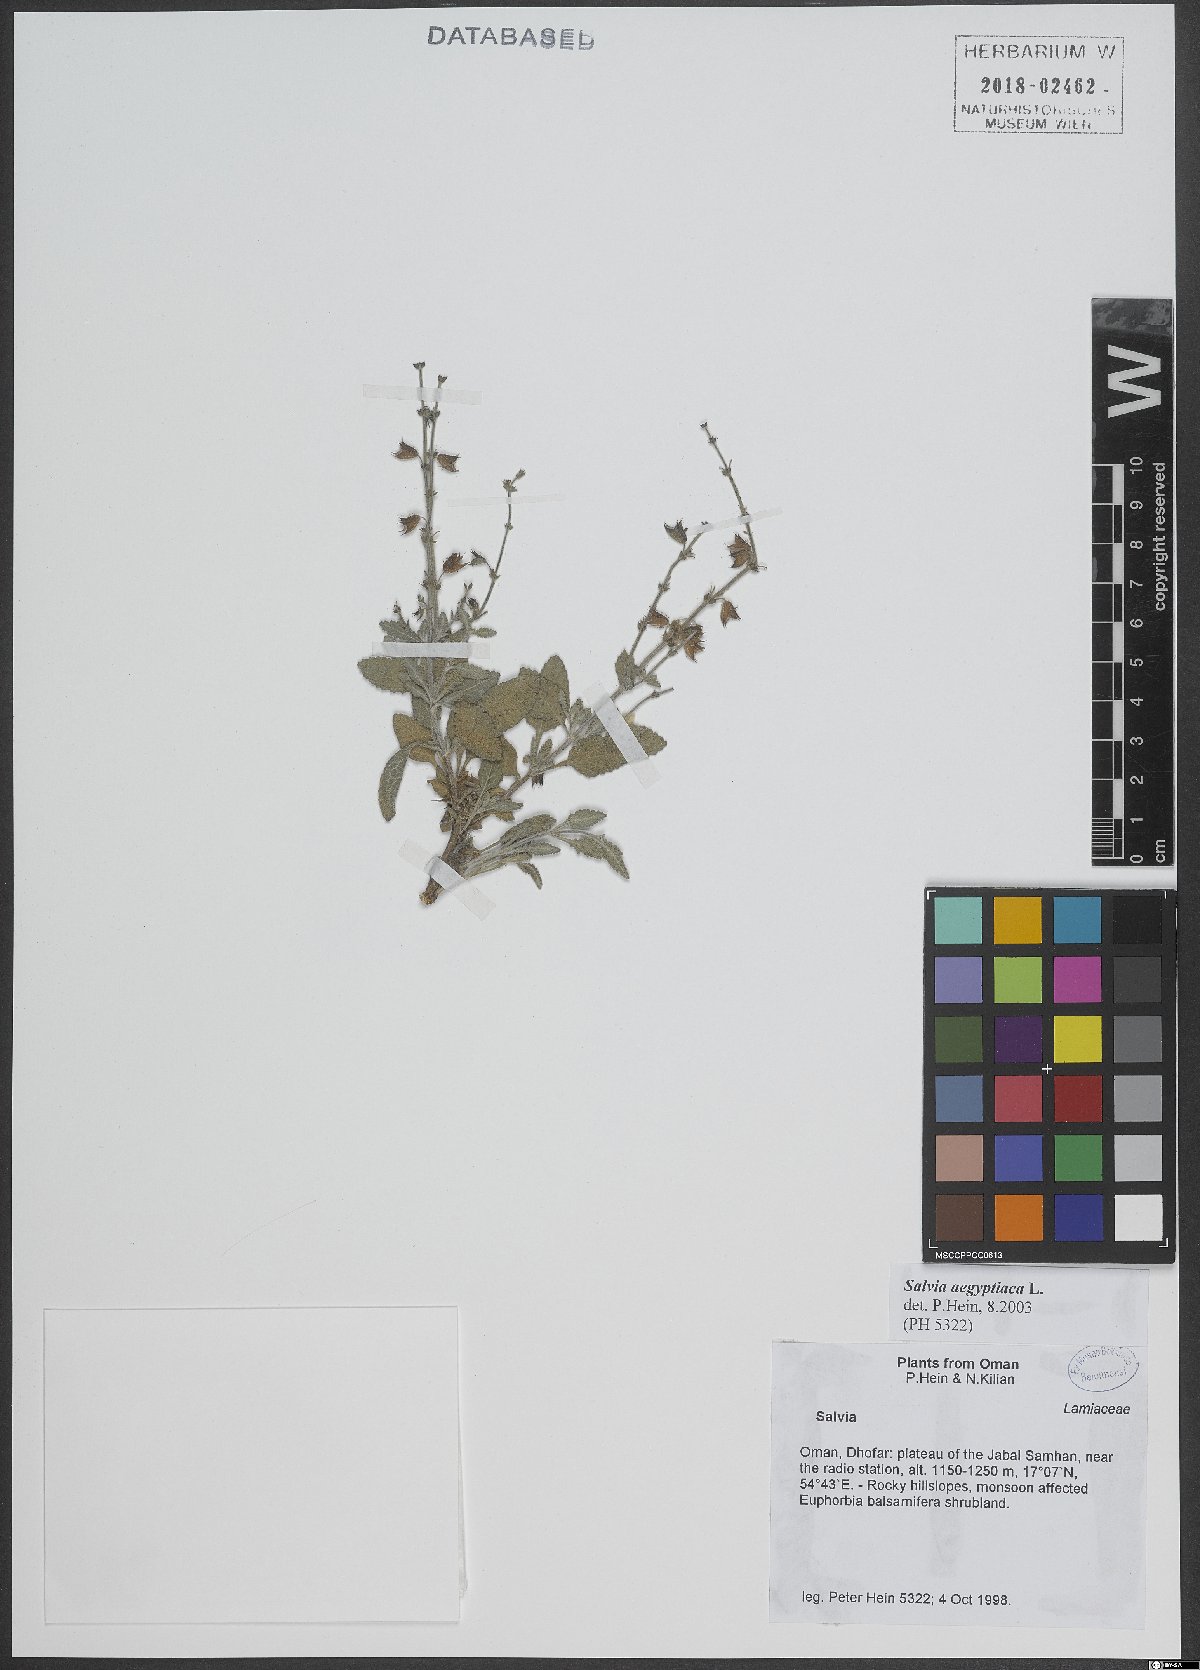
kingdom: Plantae
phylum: Tracheophyta
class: Magnoliopsida
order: Lamiales
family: Lamiaceae
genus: Salvia
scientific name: Salvia aegyptiaca
